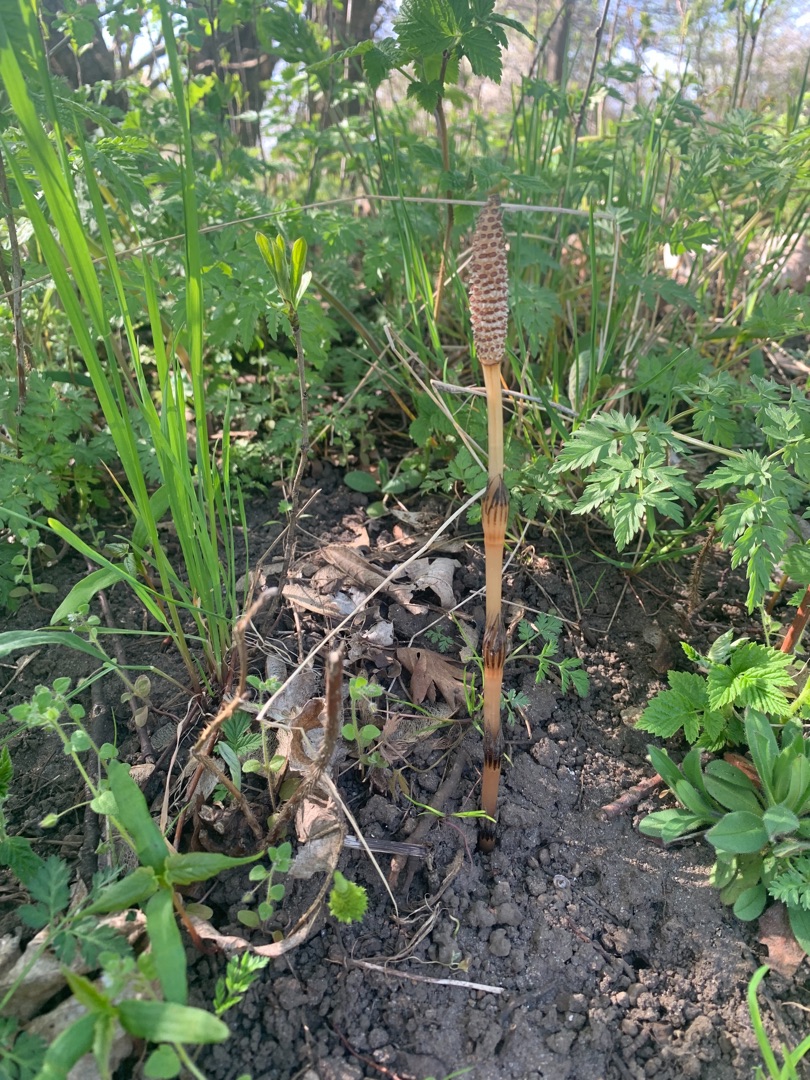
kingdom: Plantae
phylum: Tracheophyta
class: Polypodiopsida
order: Equisetales
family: Equisetaceae
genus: Equisetum
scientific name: Equisetum arvense
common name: Ager-padderok
